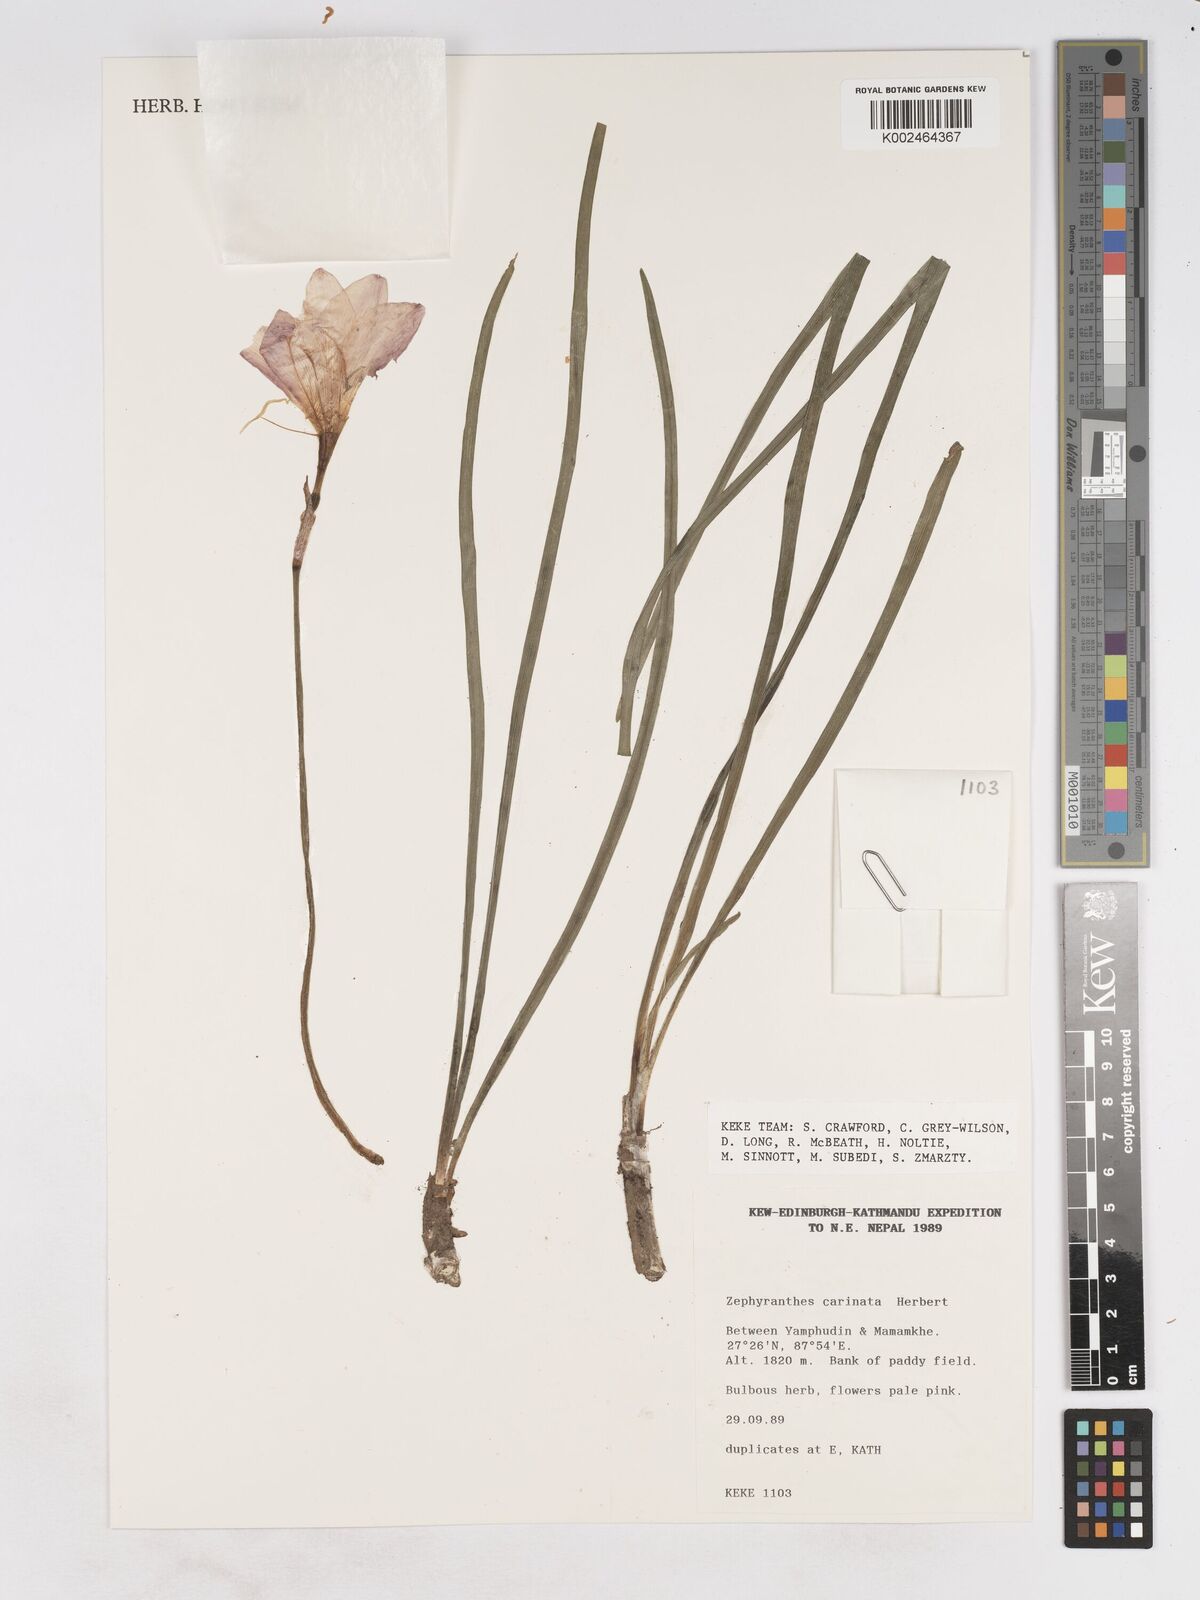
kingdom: Plantae
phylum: Tracheophyta
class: Liliopsida
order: Asparagales
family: Amaryllidaceae
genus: Zephyranthes
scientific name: Zephyranthes carinata
